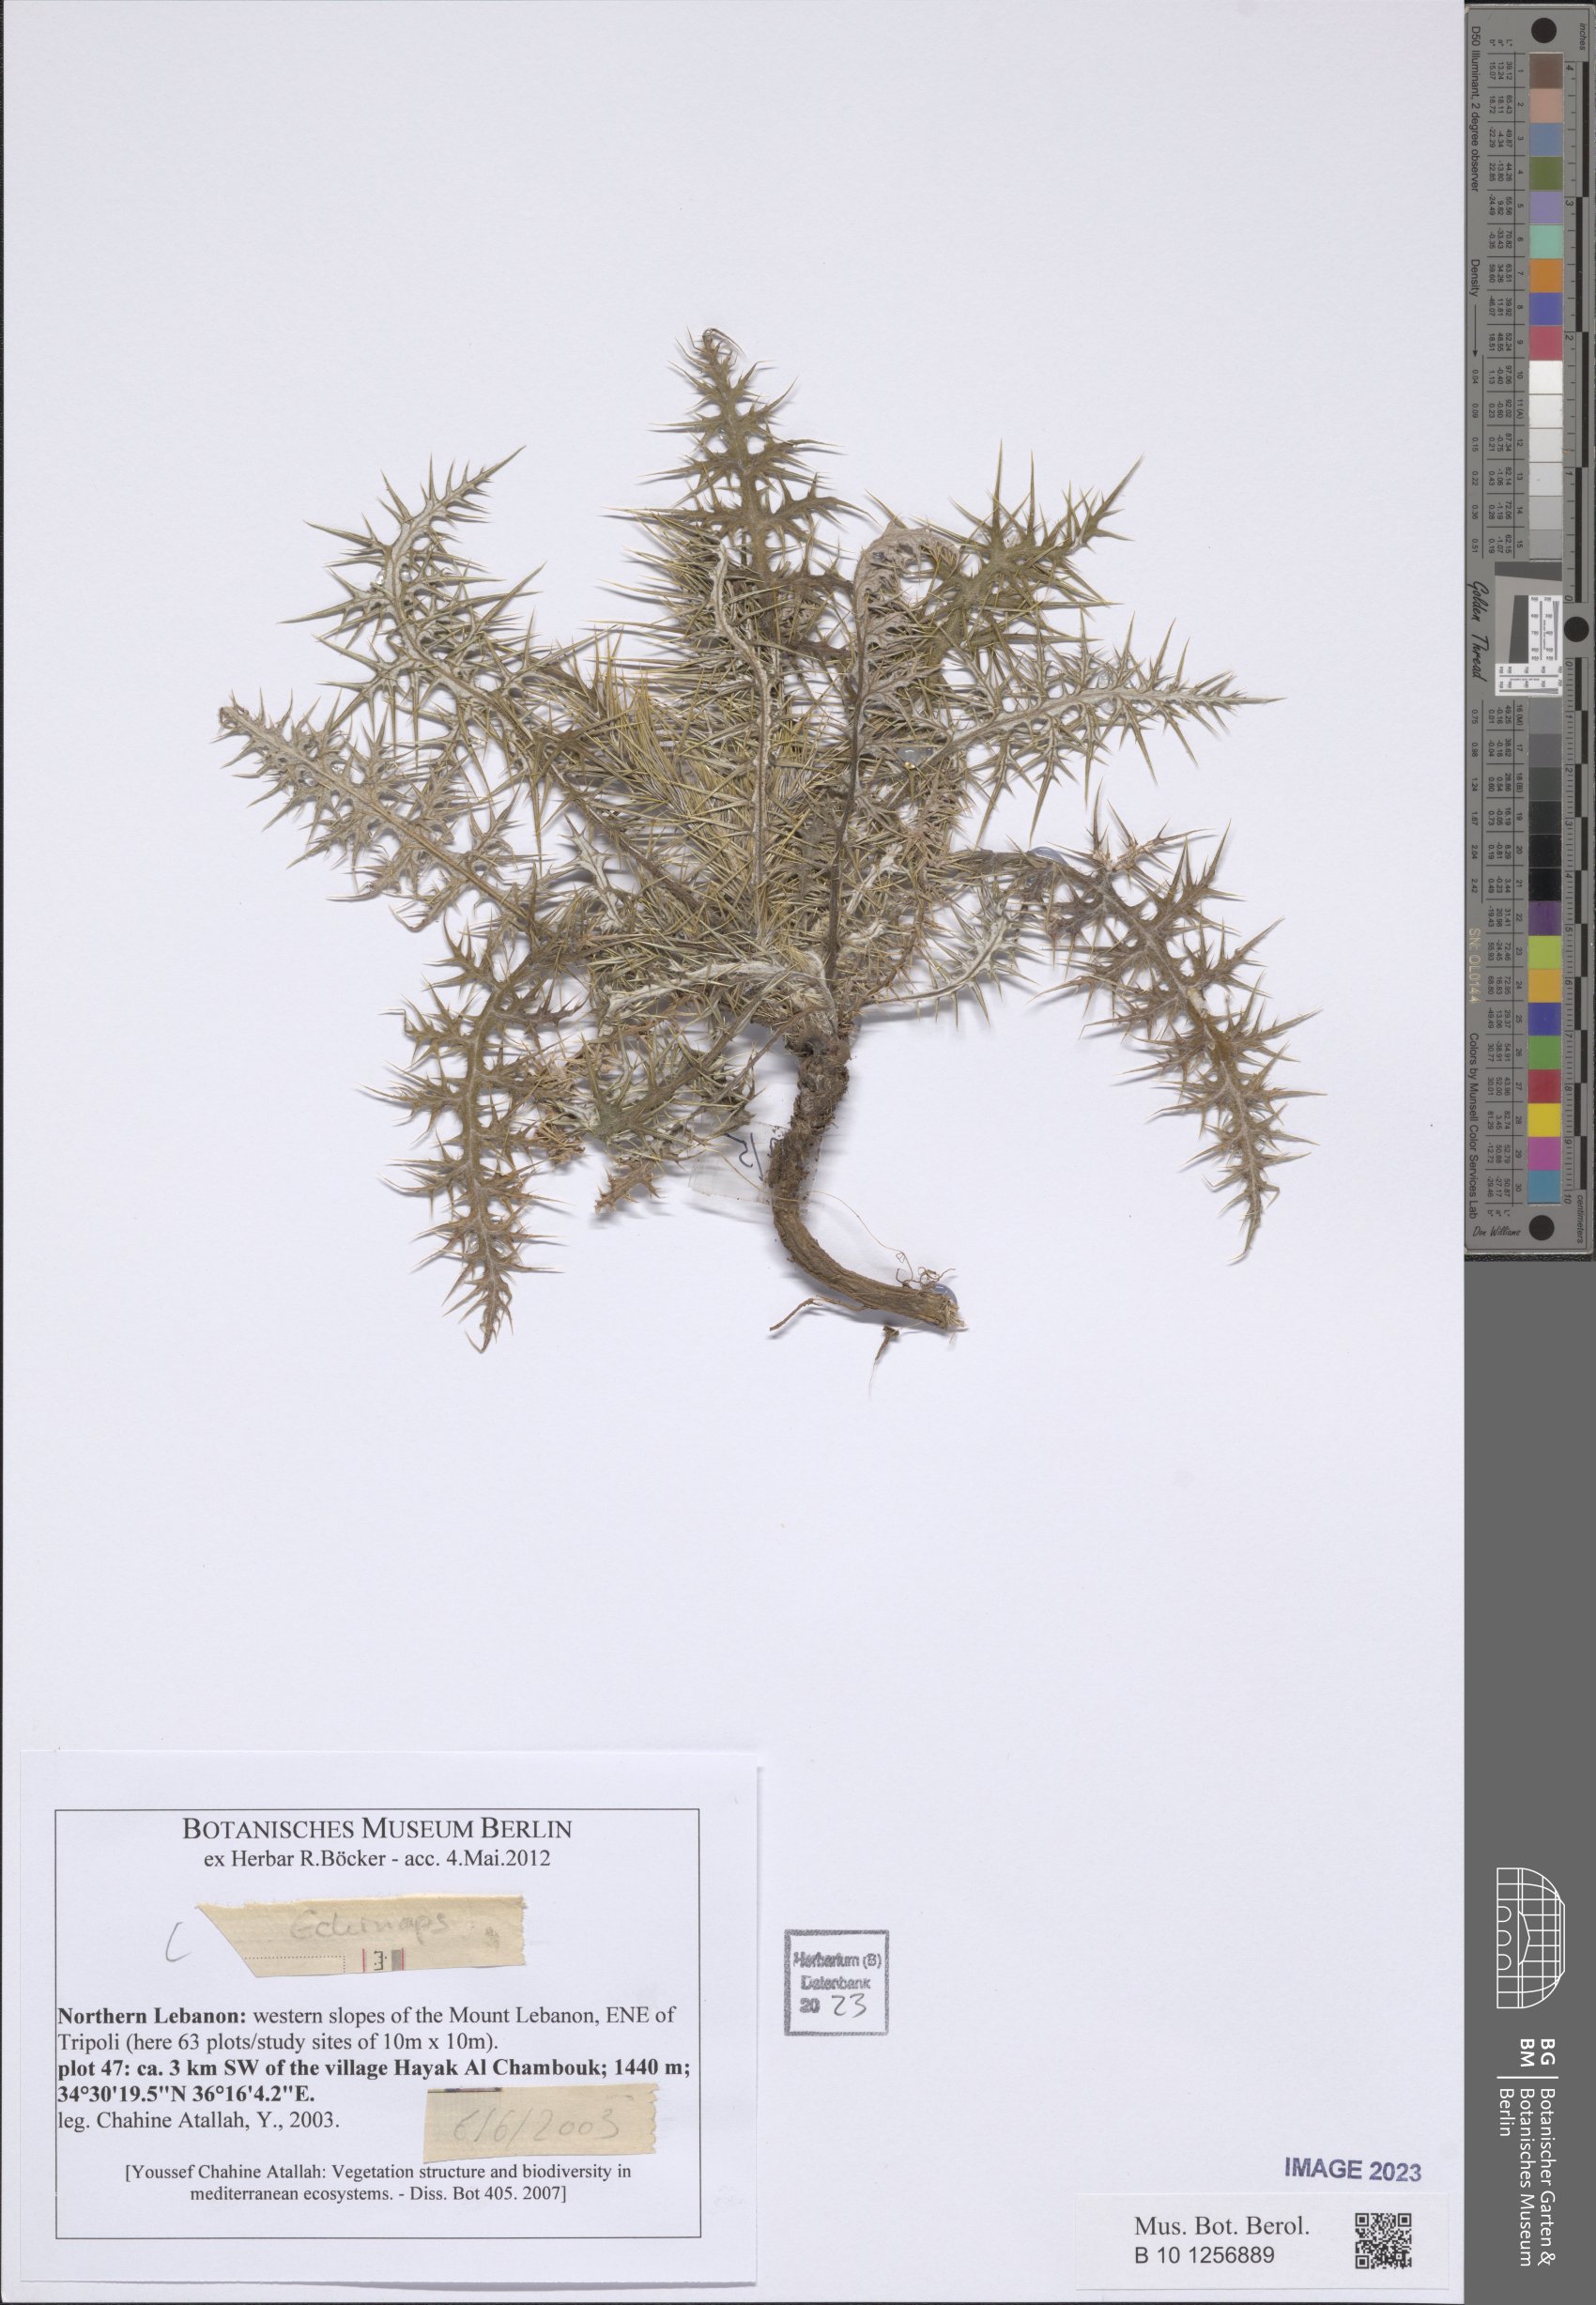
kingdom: Plantae
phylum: Tracheophyta
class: Magnoliopsida
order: Asterales
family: Asteraceae
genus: Echinops
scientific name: Echinops
